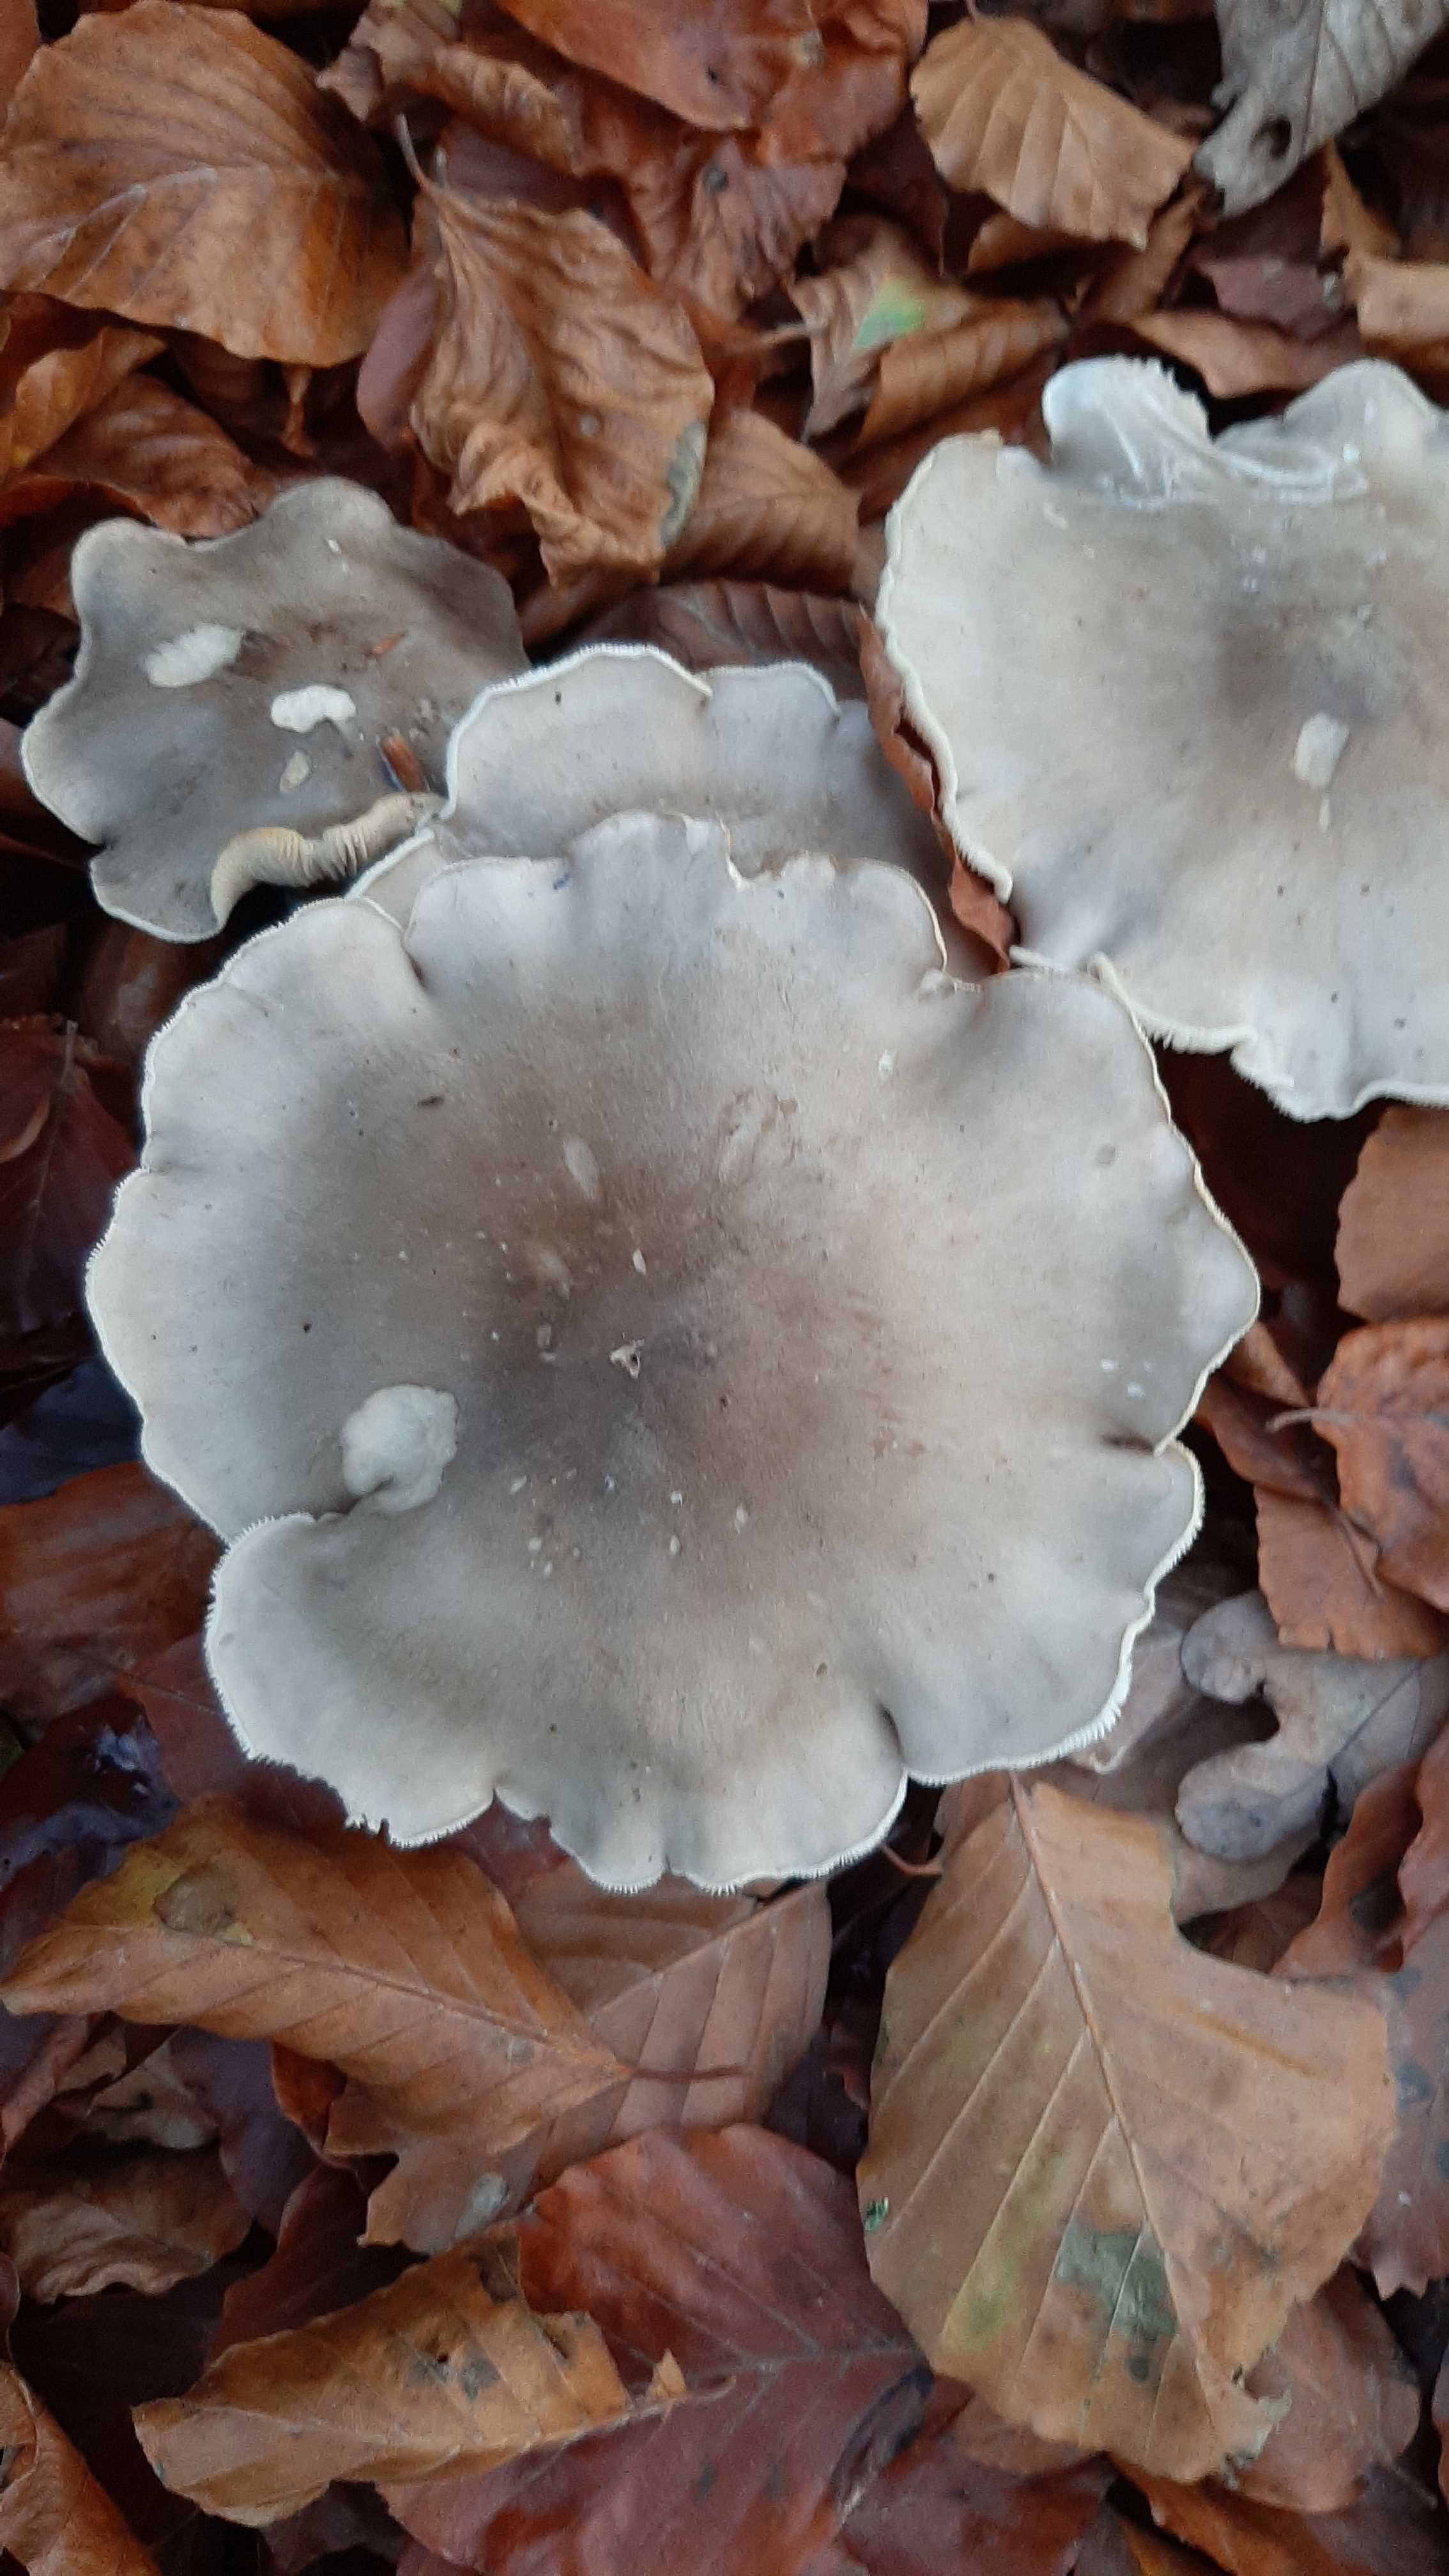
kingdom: Fungi
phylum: Basidiomycota
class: Agaricomycetes
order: Agaricales
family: Tricholomataceae
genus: Clitocybe
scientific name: Clitocybe nebularis
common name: tåge-tragthat
